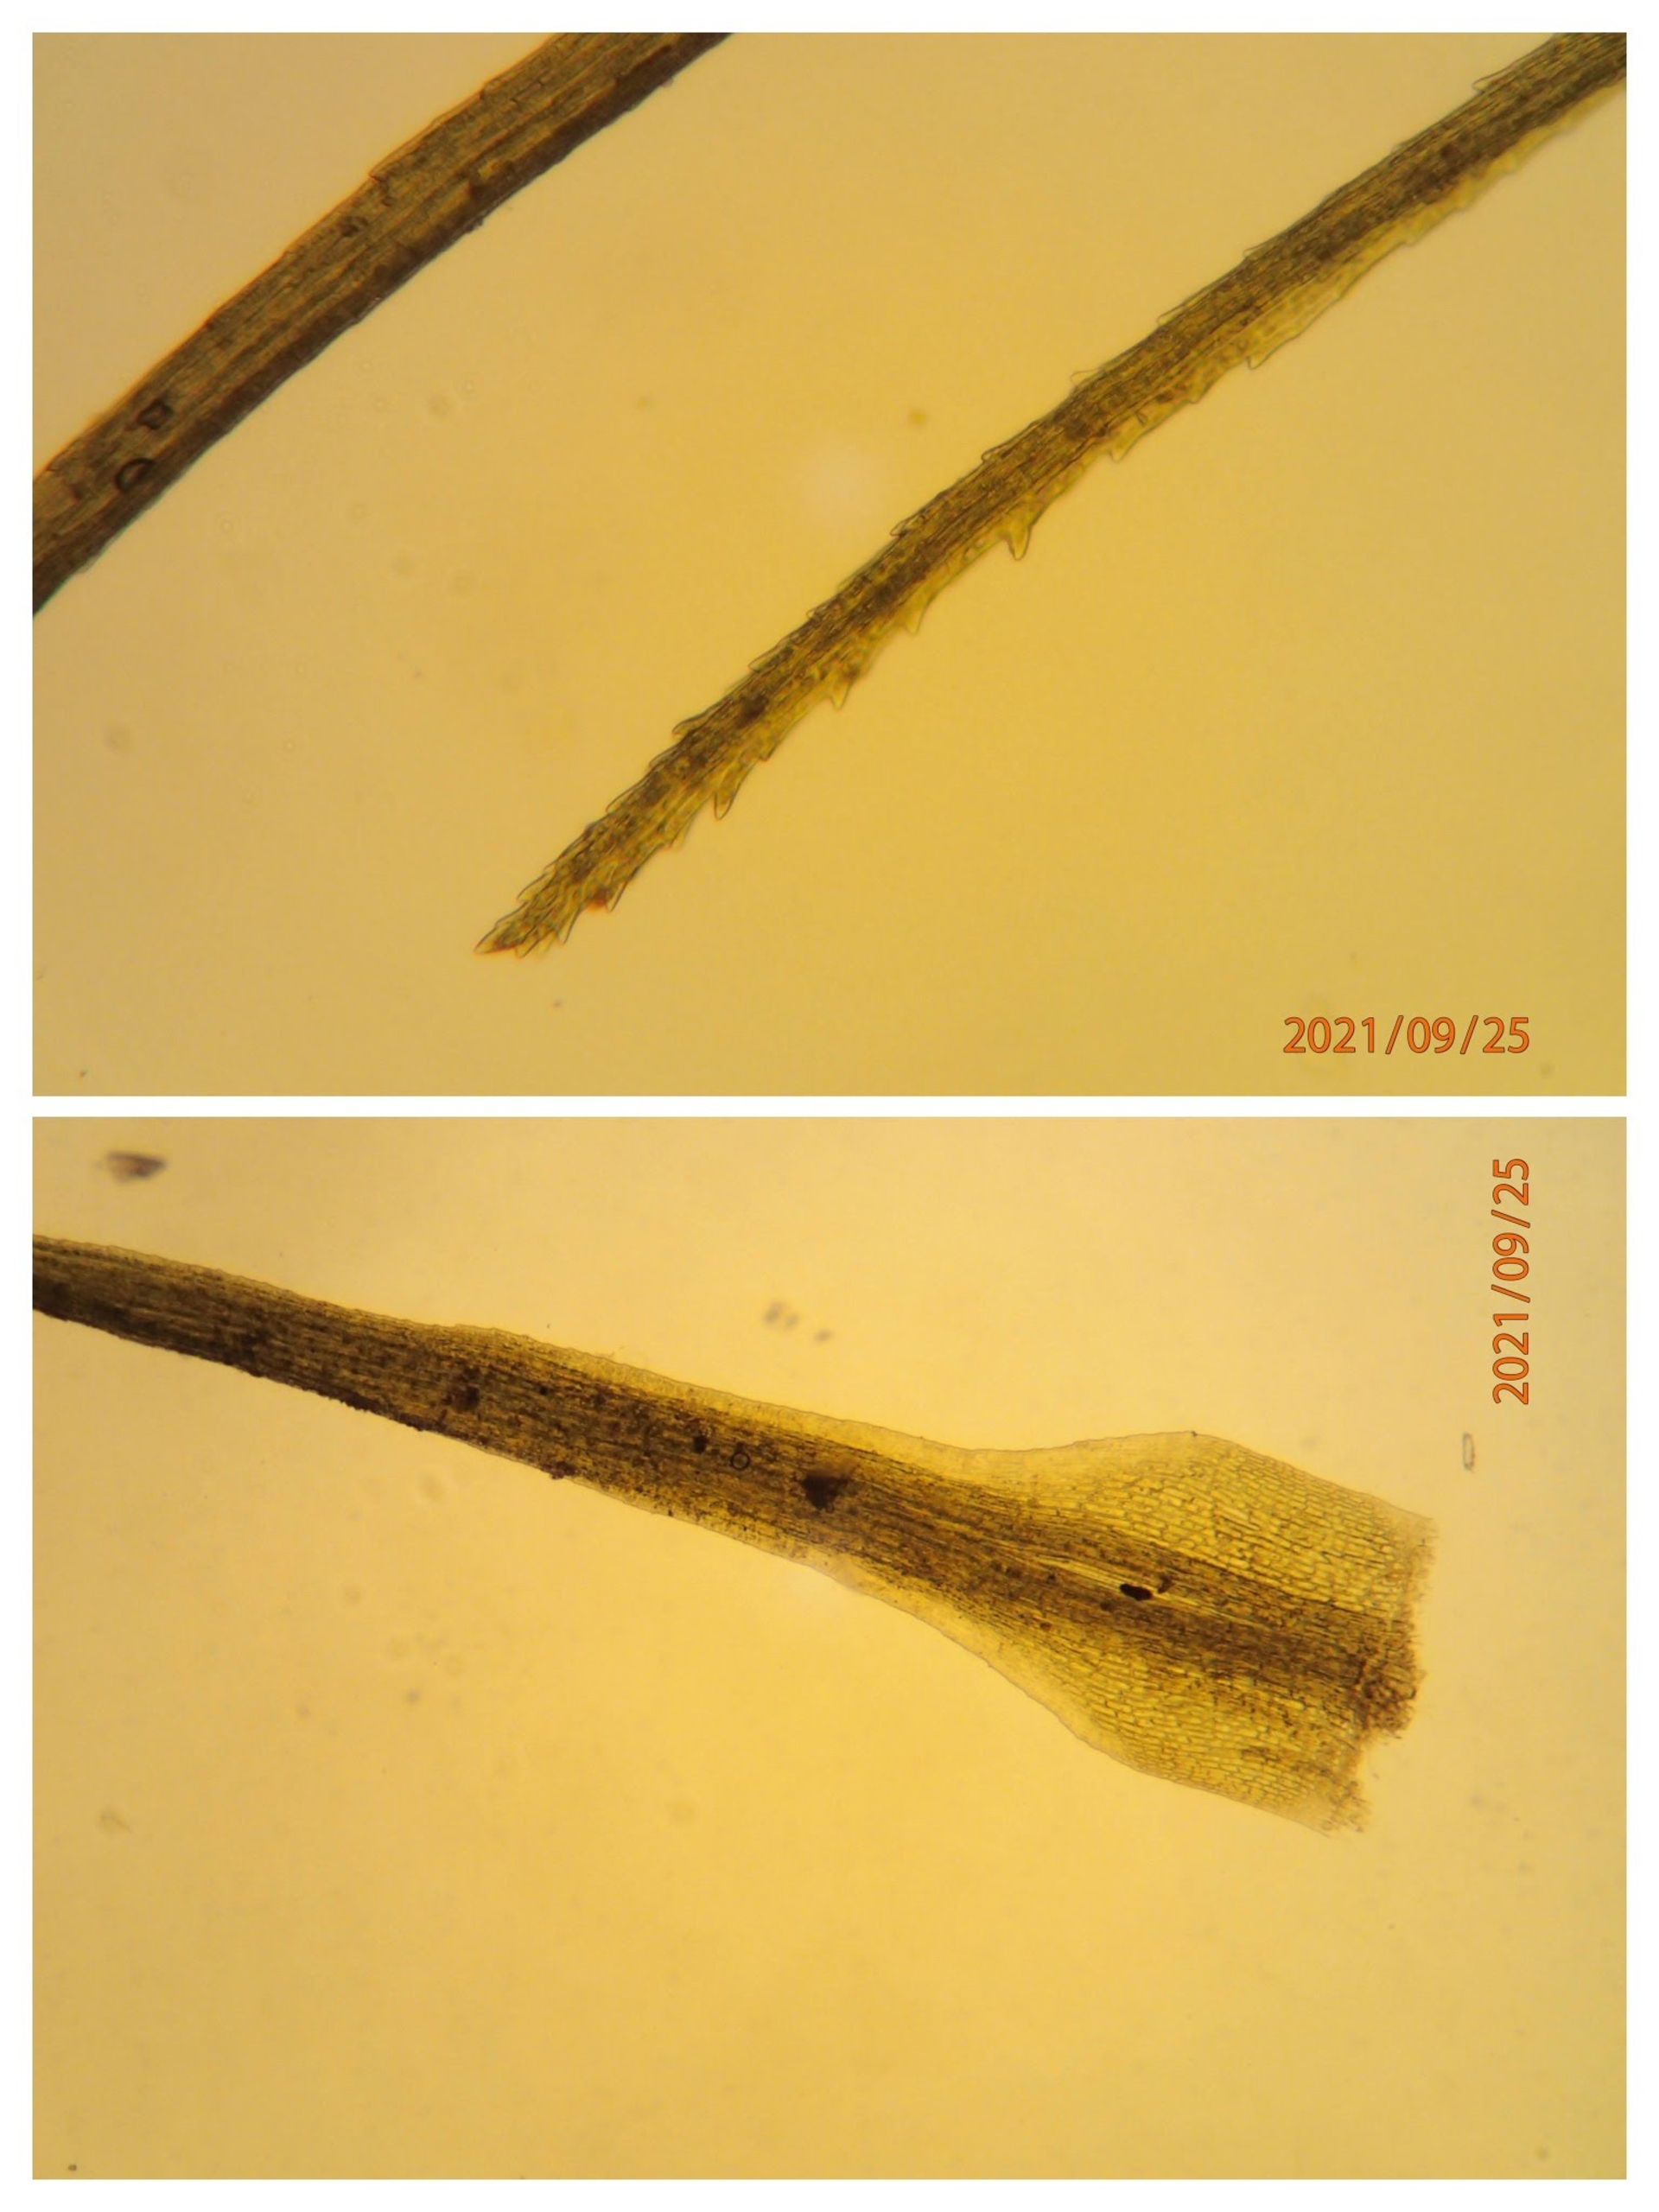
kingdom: Plantae
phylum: Bryophyta
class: Bryopsida
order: Dicranales
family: Dicranellaceae
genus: Dicranella
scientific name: Dicranella heteromalla
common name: Almindelig fløjlsmos
